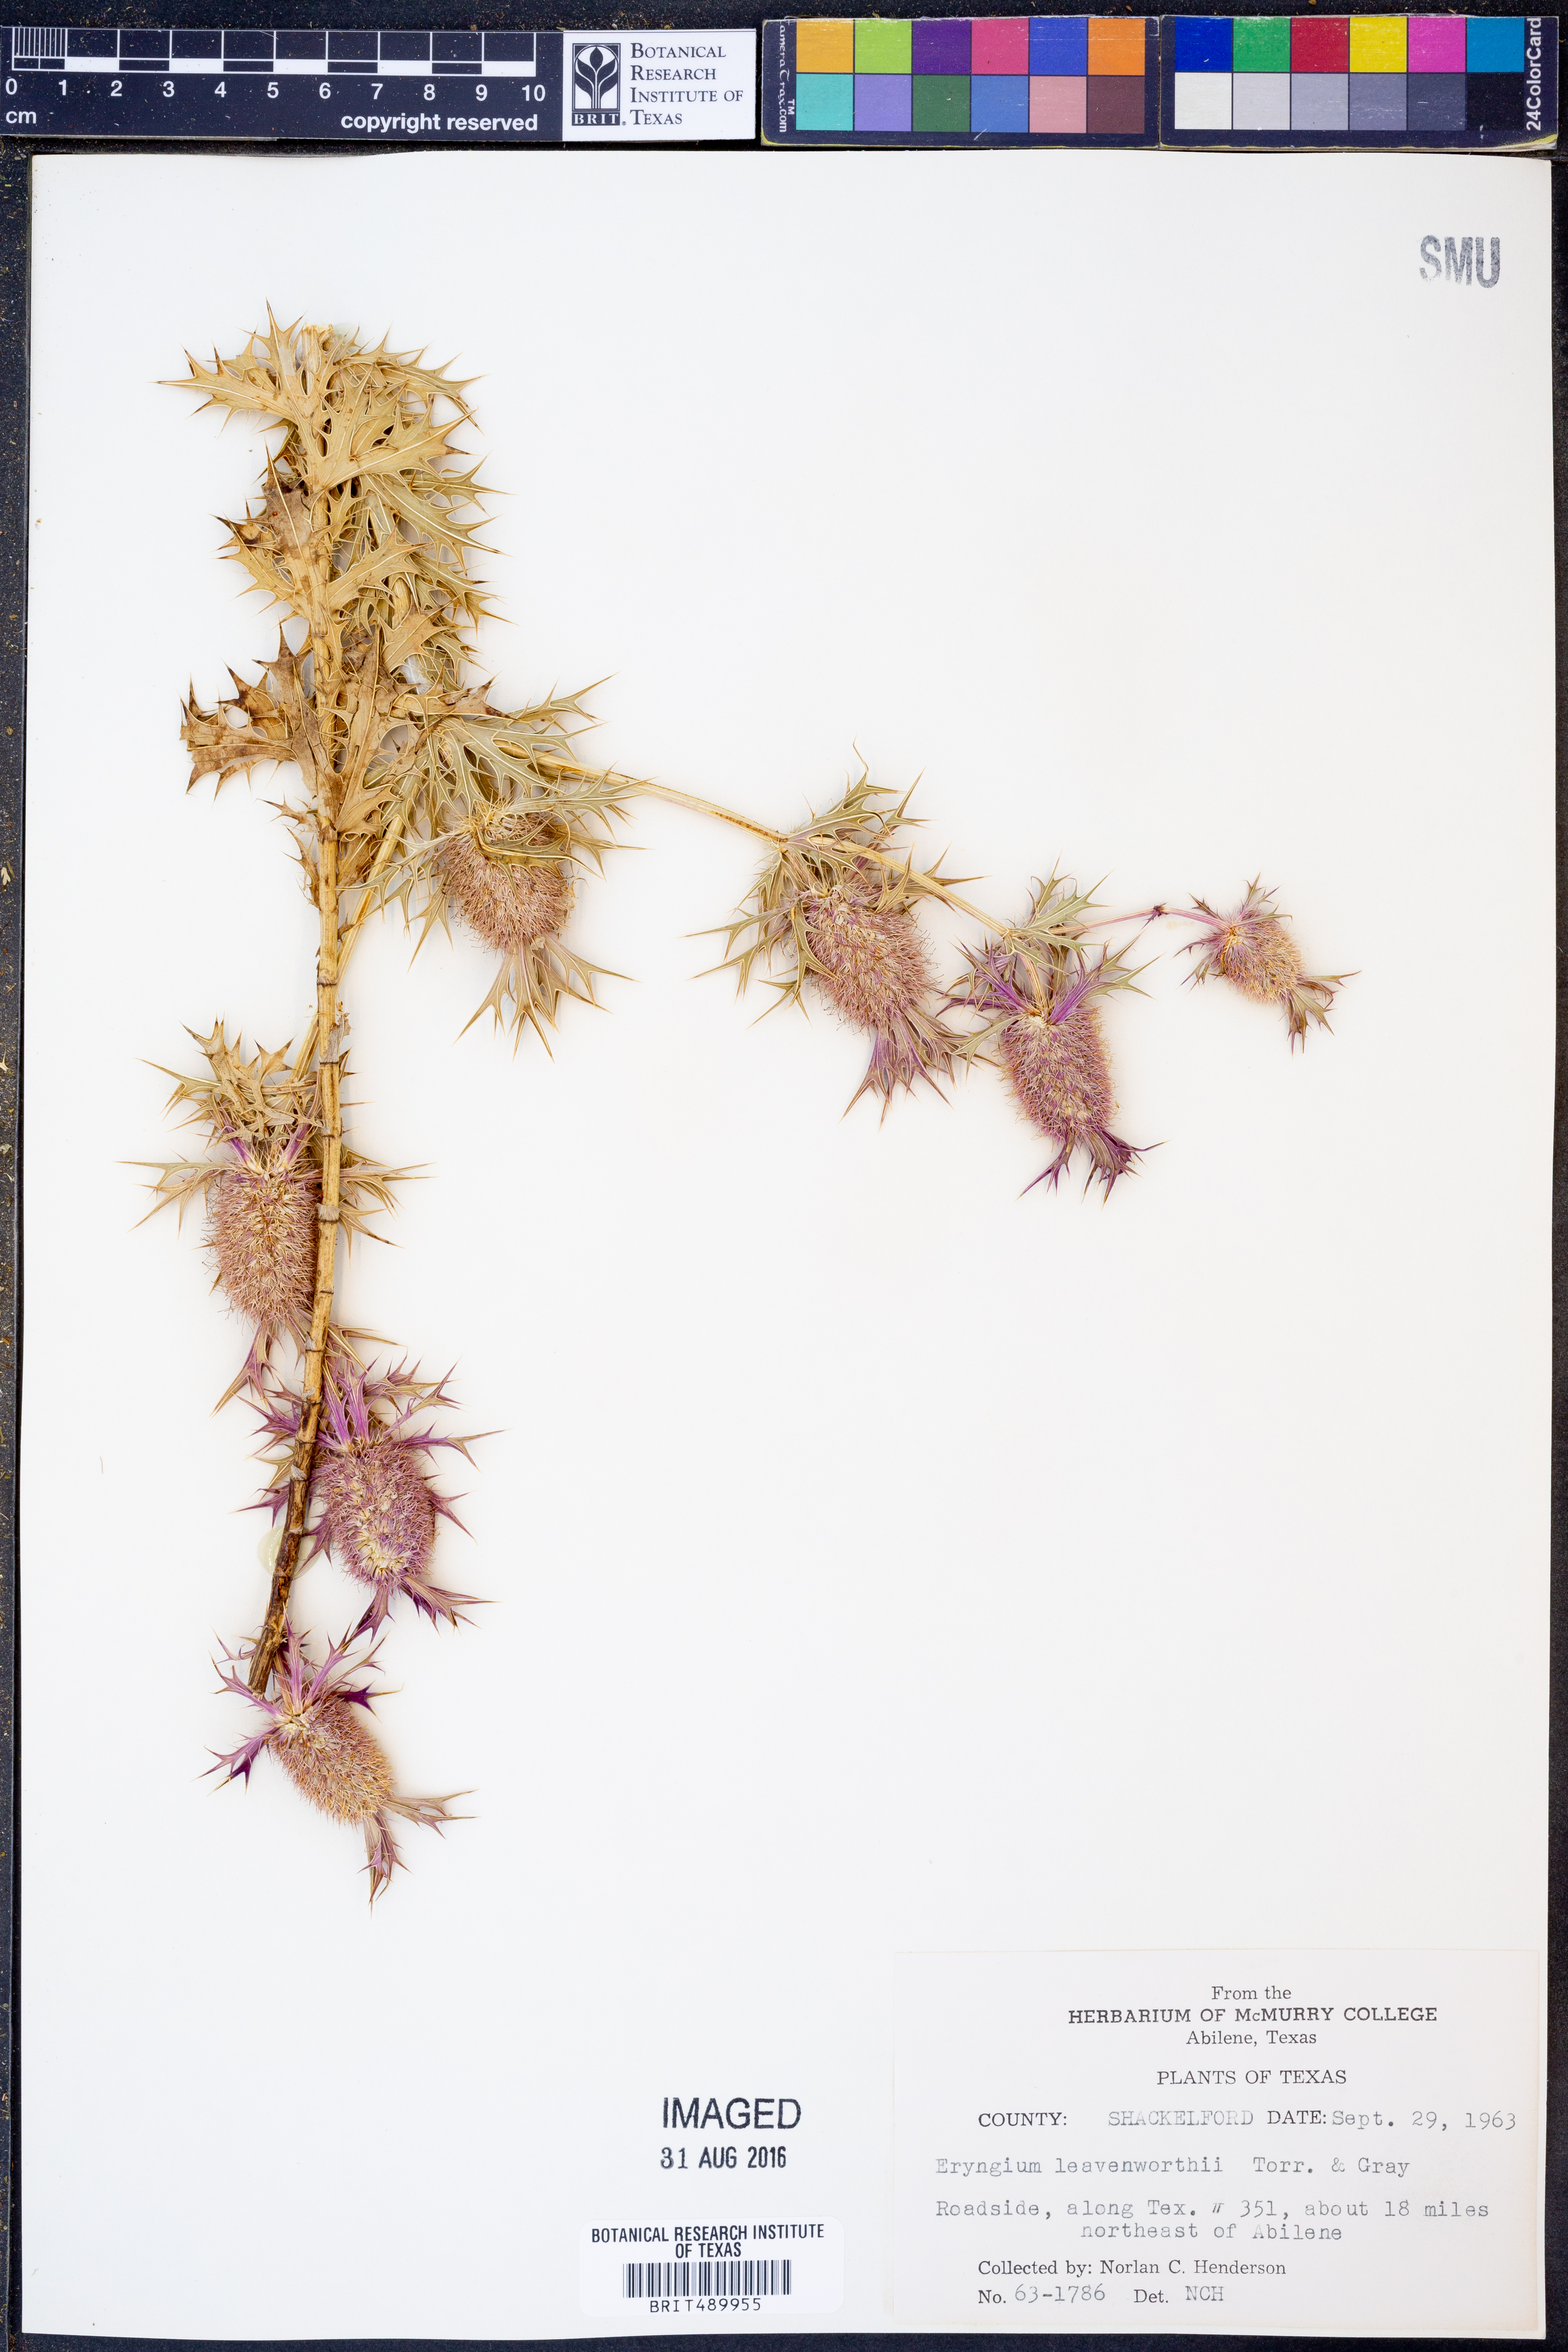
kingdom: Plantae
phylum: Tracheophyta
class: Magnoliopsida
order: Apiales
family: Apiaceae
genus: Eryngium
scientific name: Eryngium leavenworthii
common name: Leavenworth's eryngo
